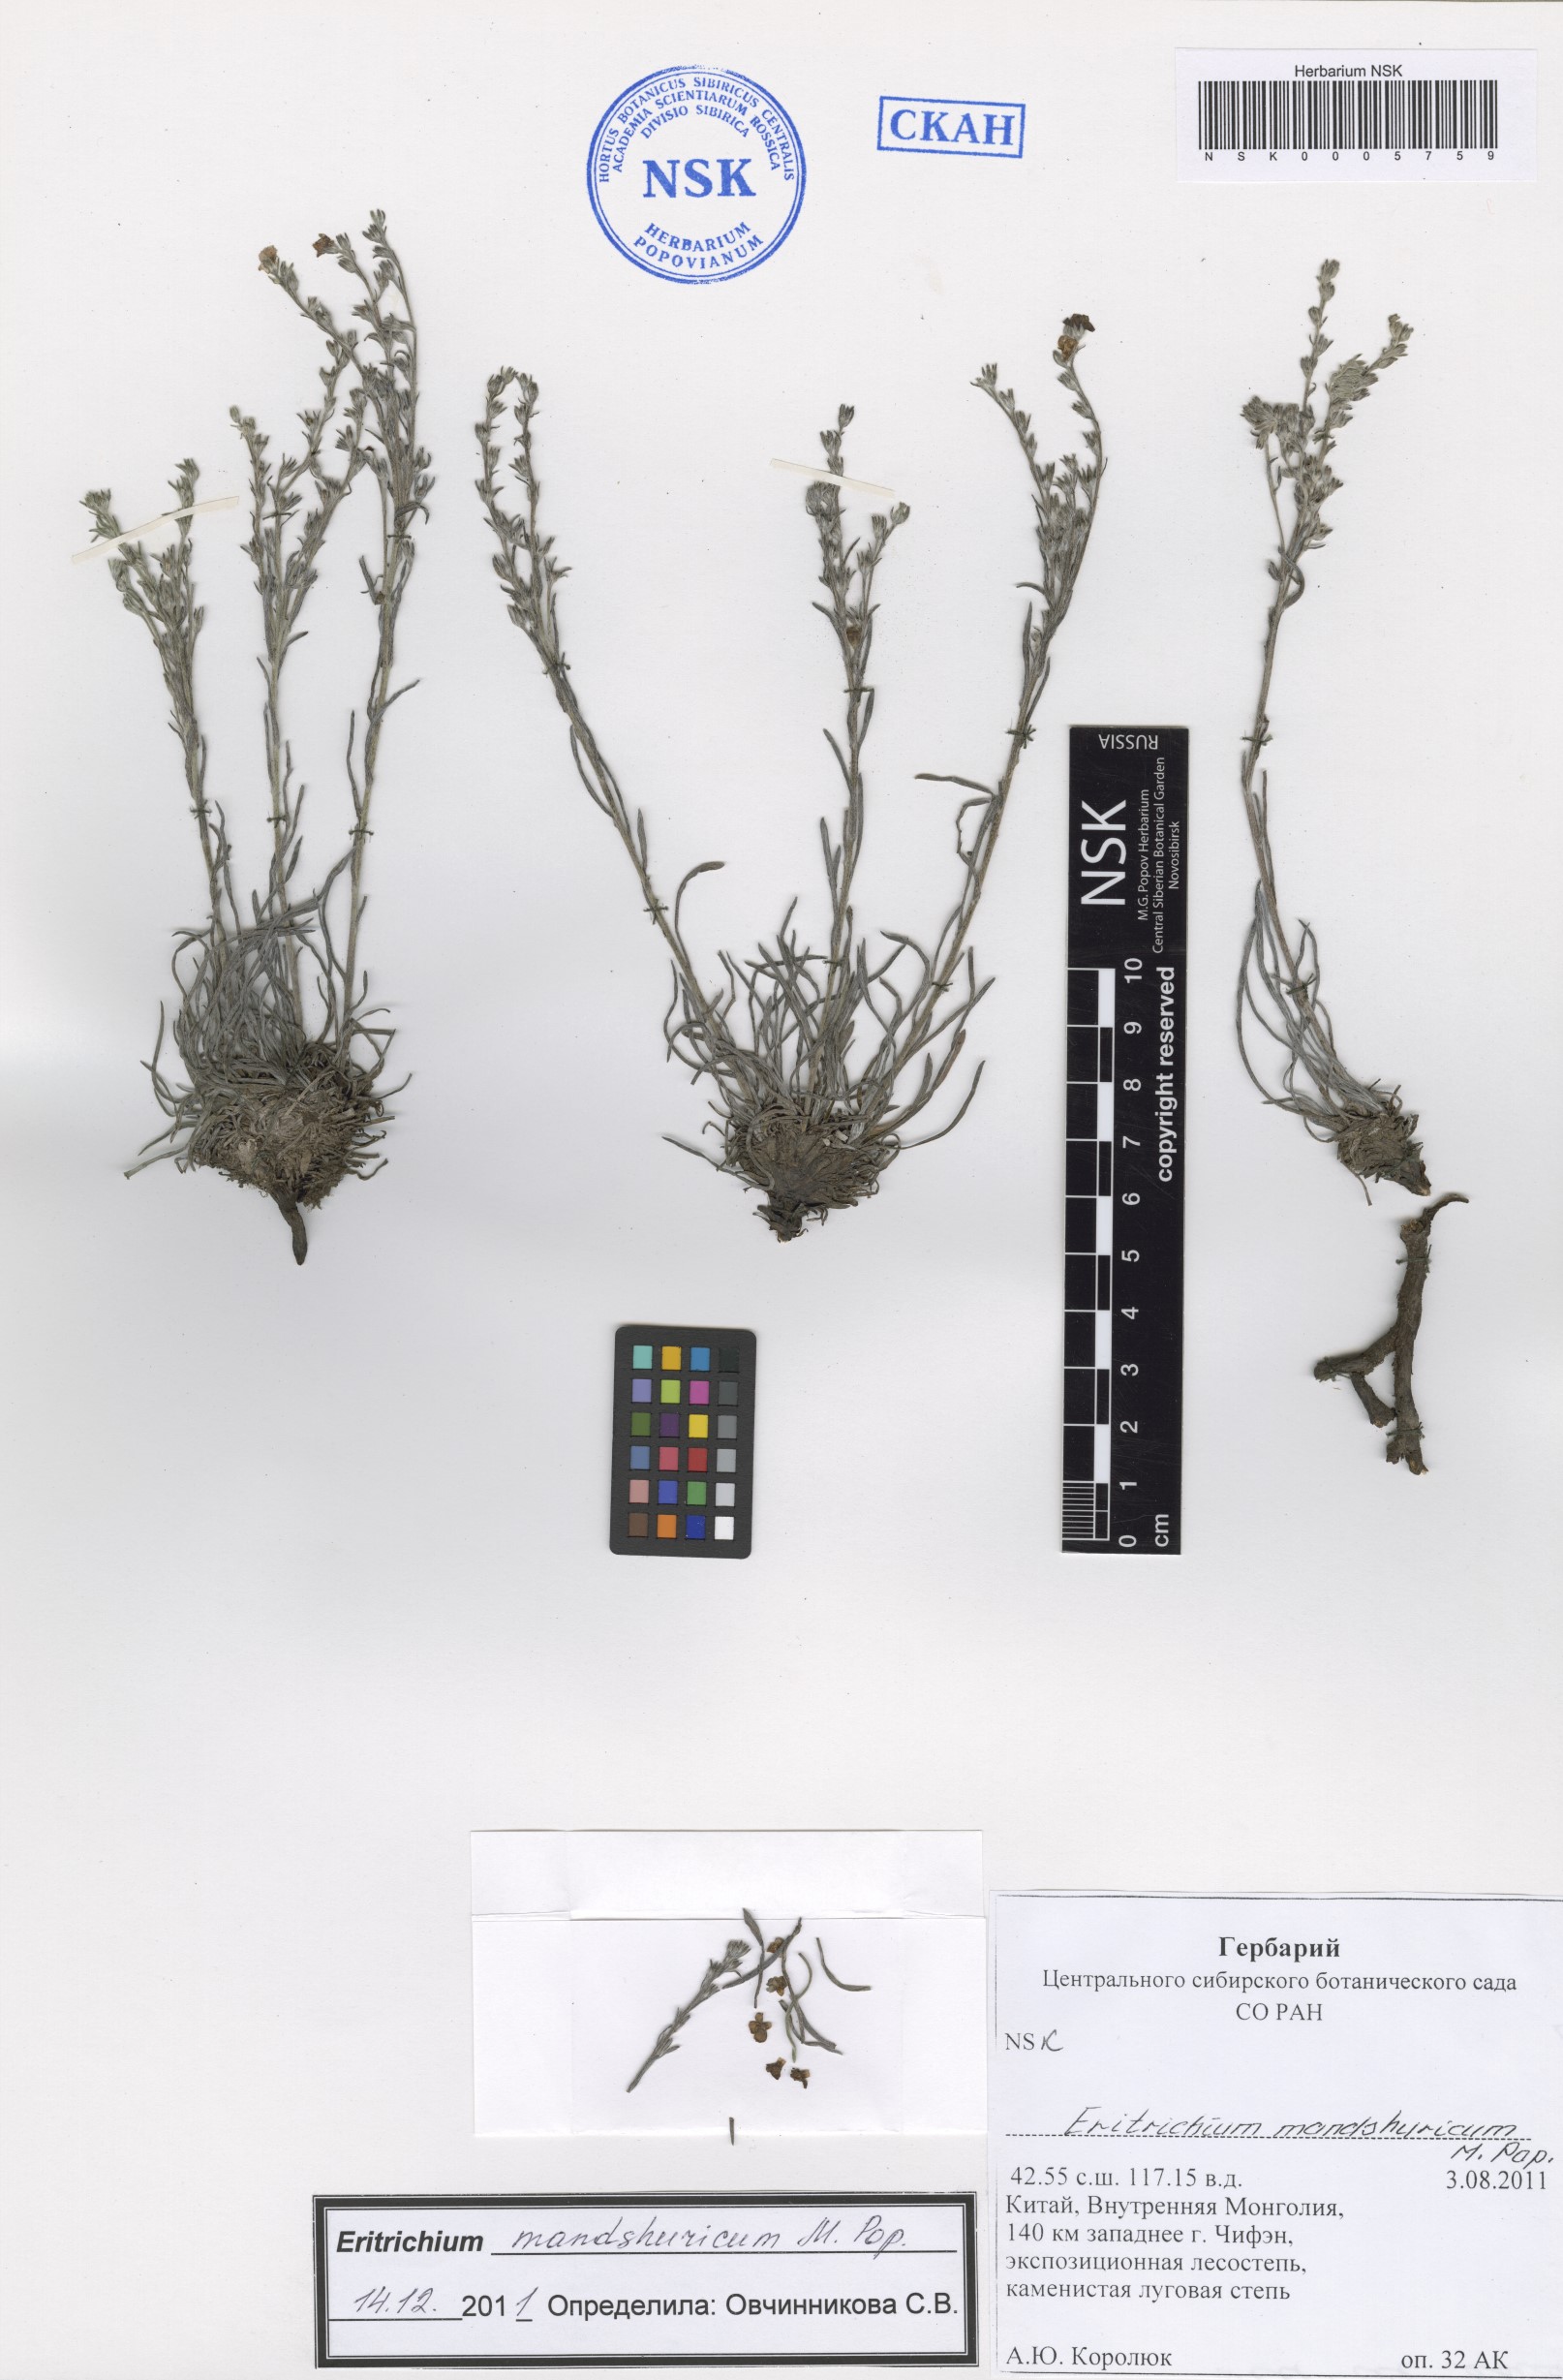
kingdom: Plantae
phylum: Tracheophyta
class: Magnoliopsida
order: Boraginales
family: Boraginaceae
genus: Eritrichium
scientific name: Eritrichium mandshuricum
